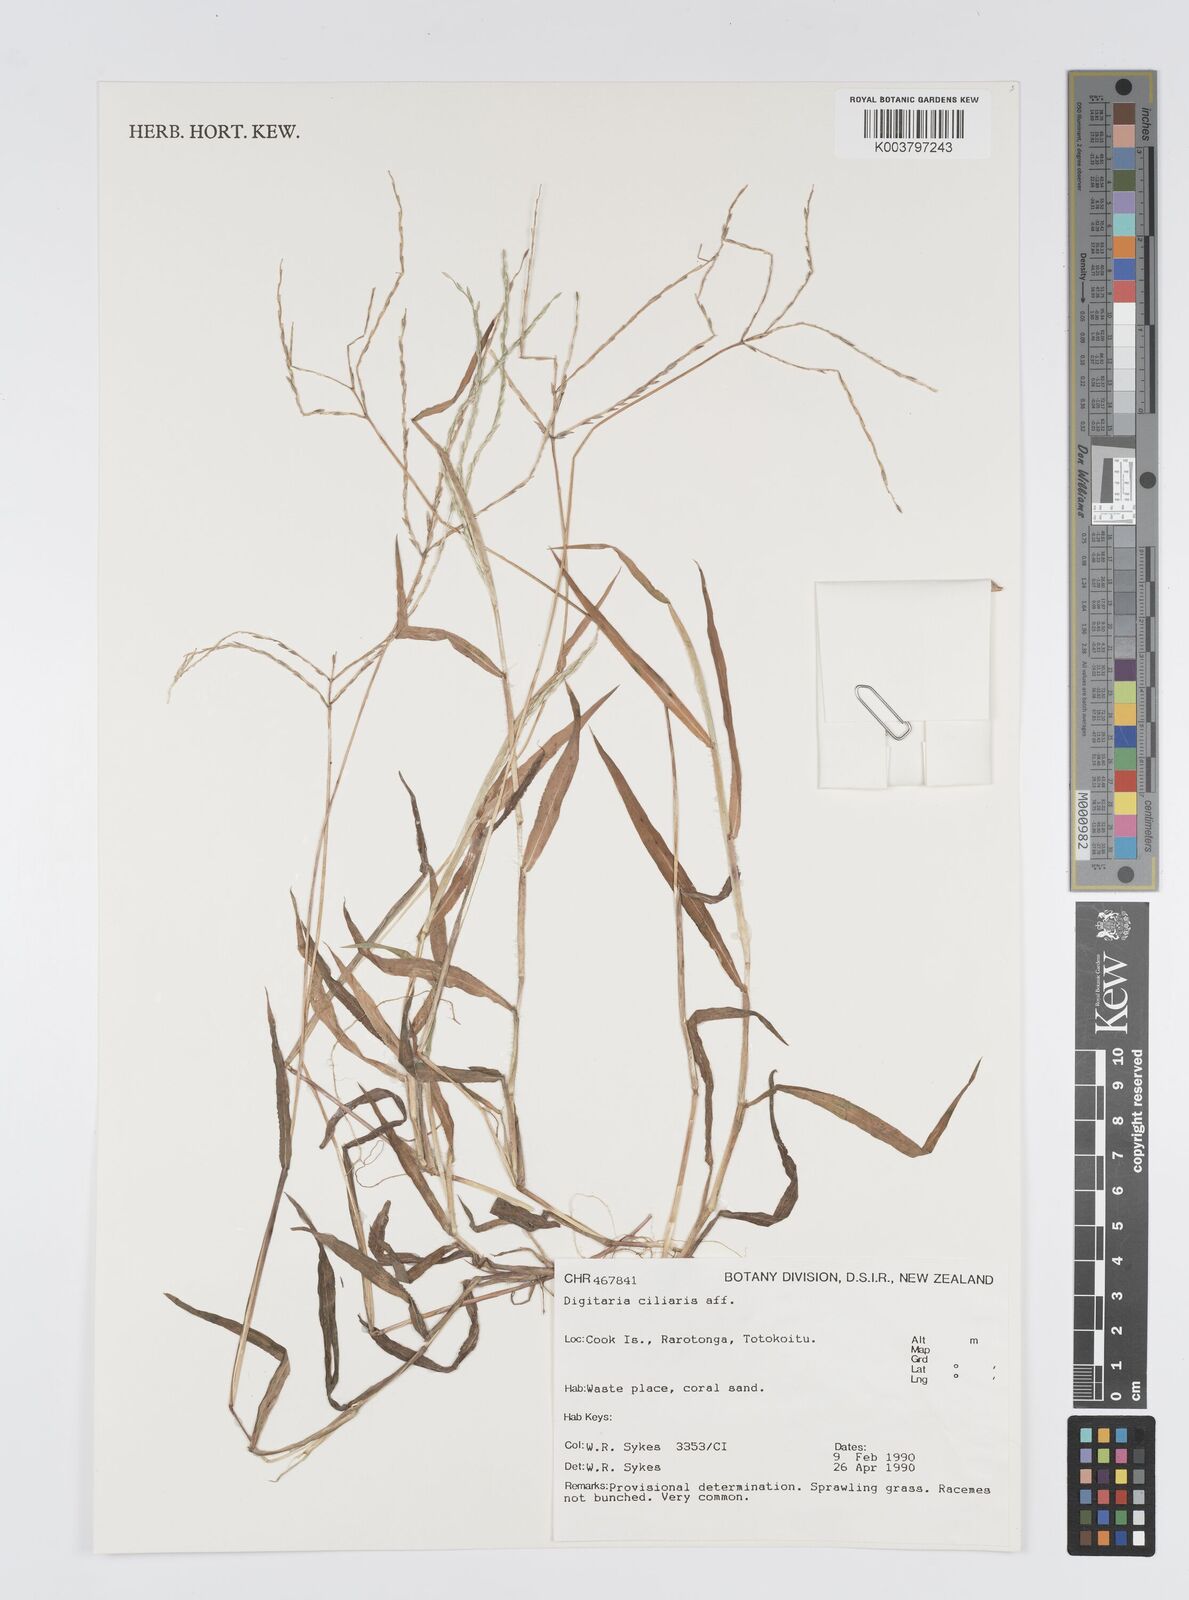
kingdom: Plantae
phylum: Tracheophyta
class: Liliopsida
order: Poales
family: Poaceae
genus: Digitaria
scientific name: Digitaria ciliaris
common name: Tropical finger-grass
